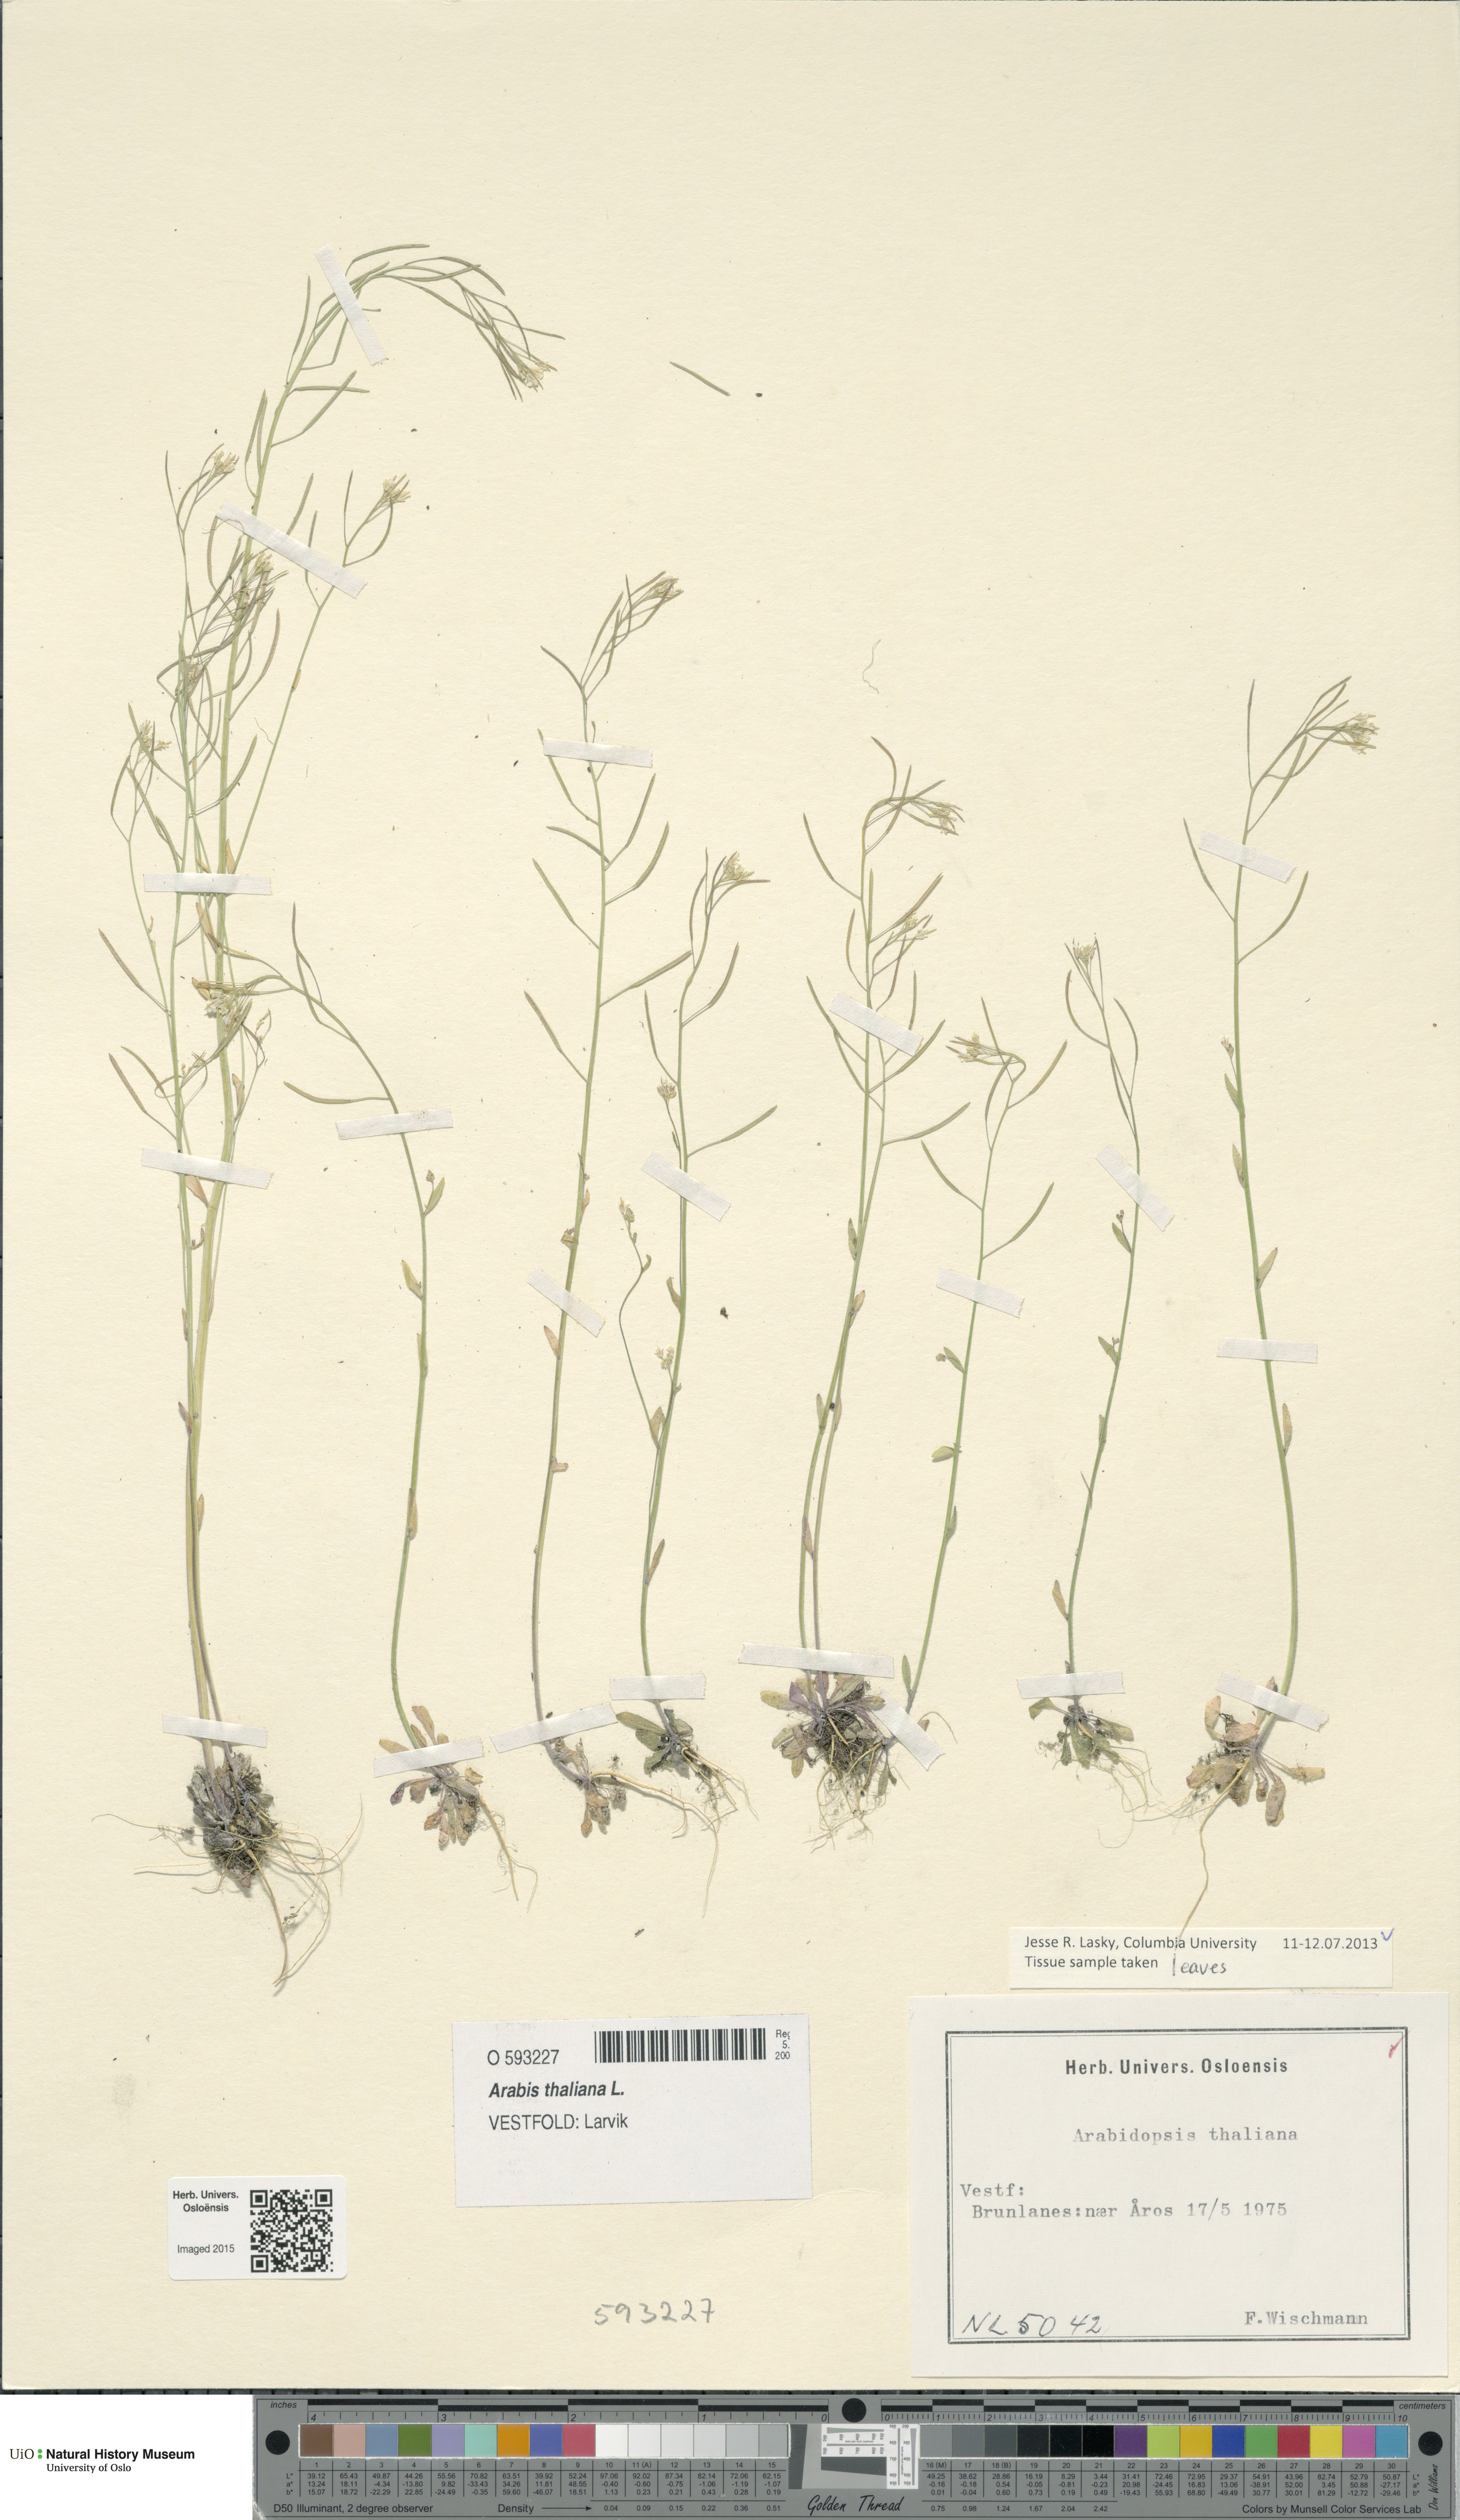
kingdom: Plantae
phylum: Tracheophyta
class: Magnoliopsida
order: Brassicales
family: Brassicaceae
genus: Arabidopsis
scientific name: Arabidopsis thaliana
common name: Thale cress
